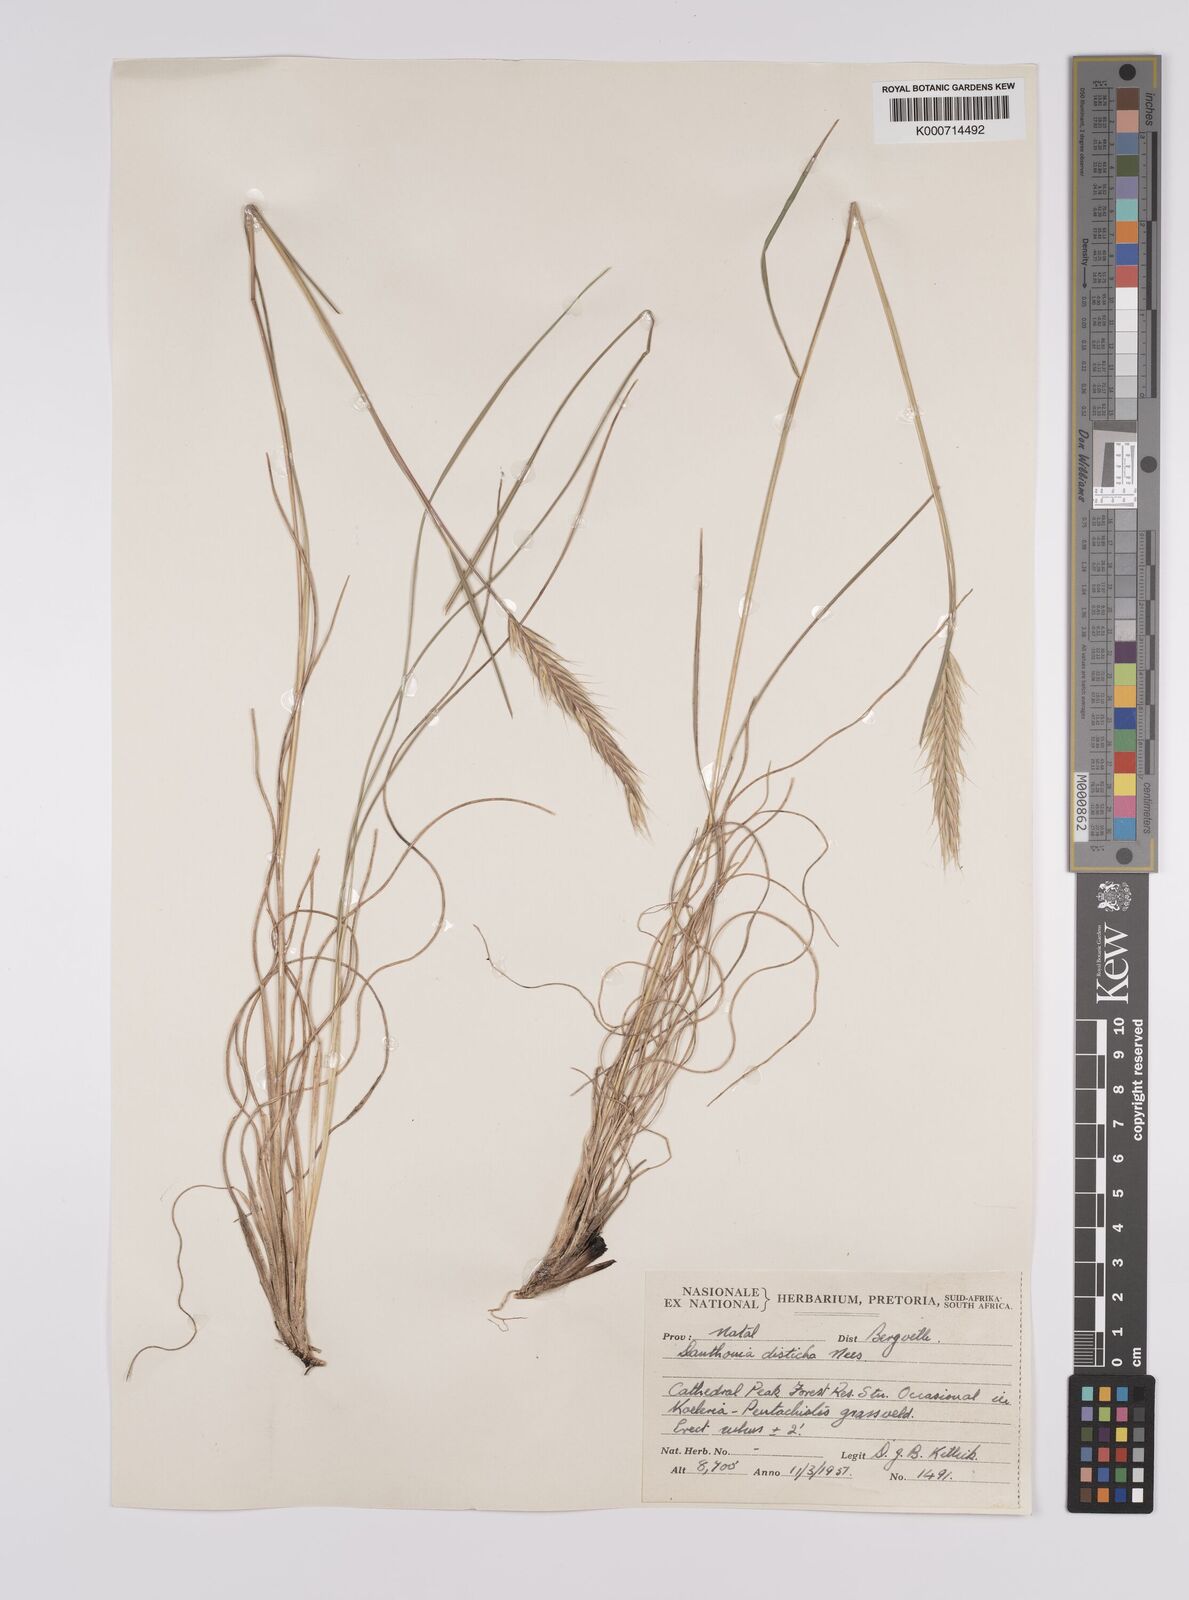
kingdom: Plantae
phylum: Tracheophyta
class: Liliopsida
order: Poales
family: Poaceae
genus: Tenaxia
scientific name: Tenaxia disticha
